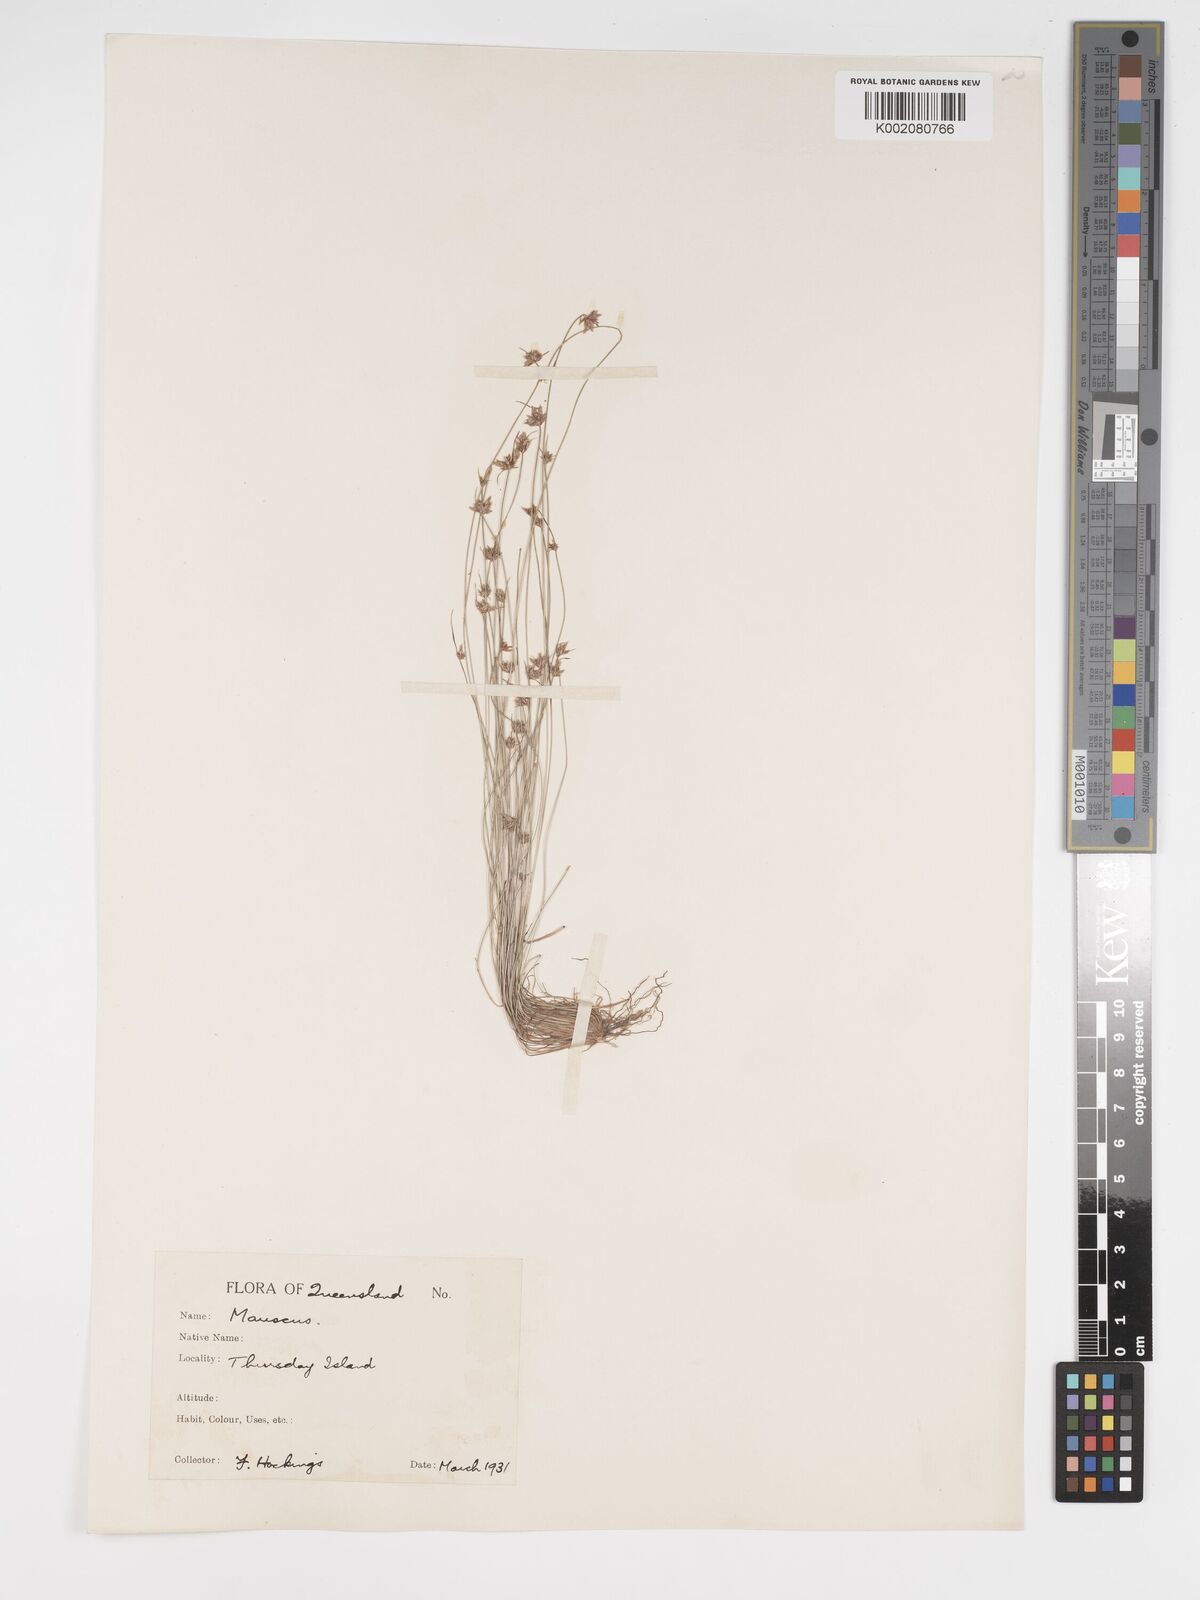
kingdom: Plantae
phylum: Tracheophyta
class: Liliopsida
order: Poales
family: Cyperaceae
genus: Bulbostylis
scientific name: Bulbostylis barbata
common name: Watergrass
